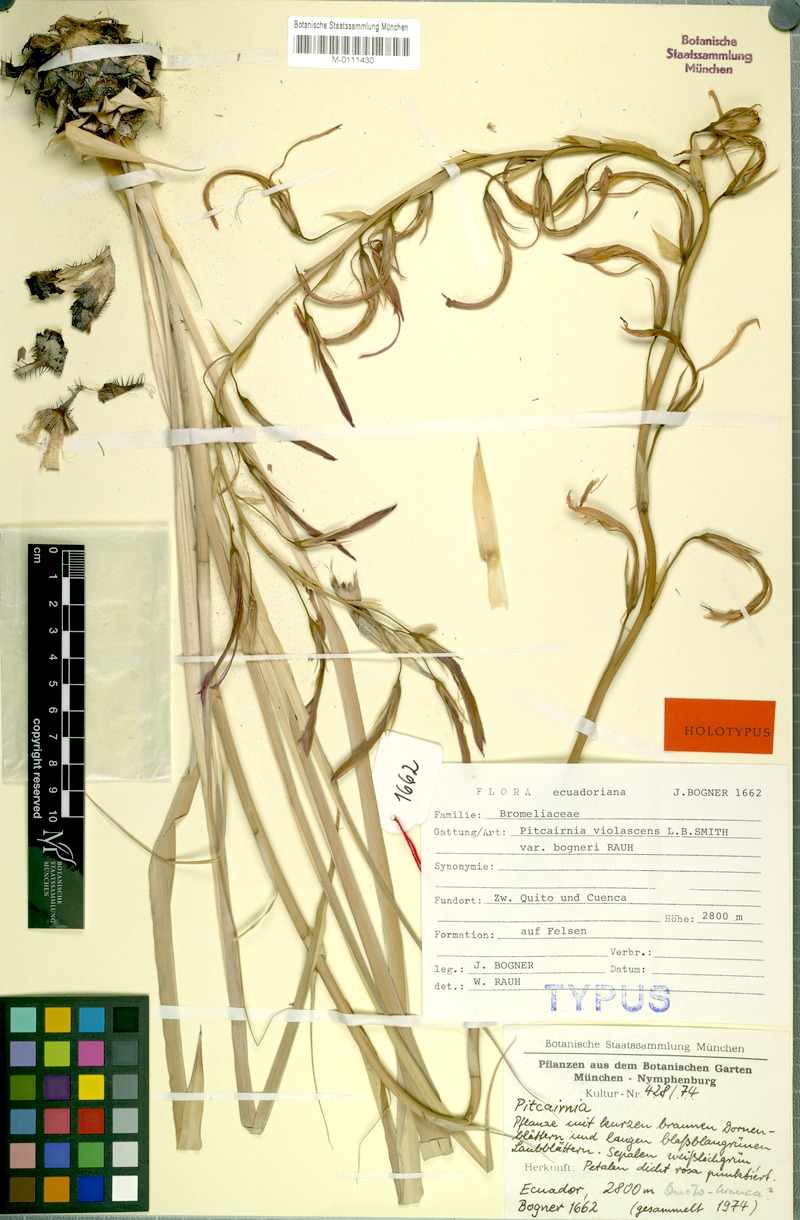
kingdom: Plantae
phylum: Tracheophyta
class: Liliopsida
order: Poales
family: Bromeliaceae
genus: Pitcairnia
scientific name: Pitcairnia aequatorialis
